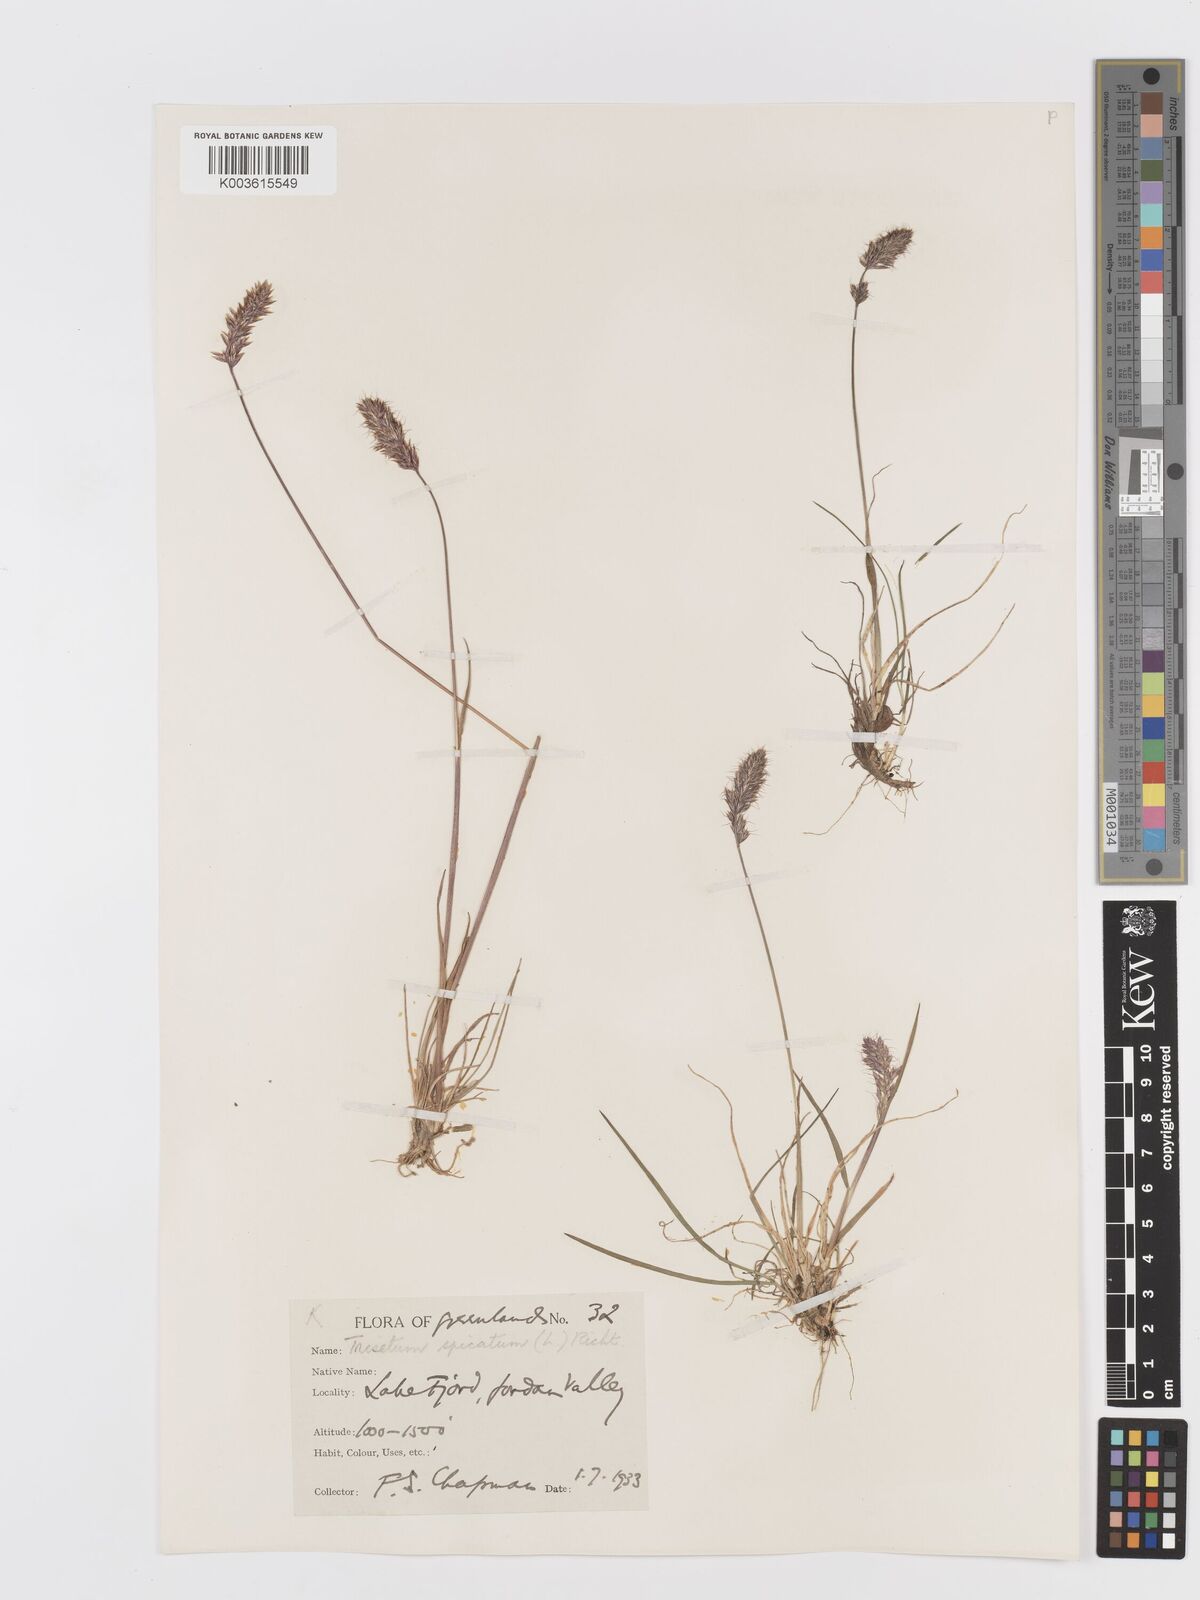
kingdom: Plantae
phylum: Tracheophyta
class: Liliopsida
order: Poales
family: Poaceae
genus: Koeleria
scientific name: Koeleria spicata
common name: Mountain trisetum
